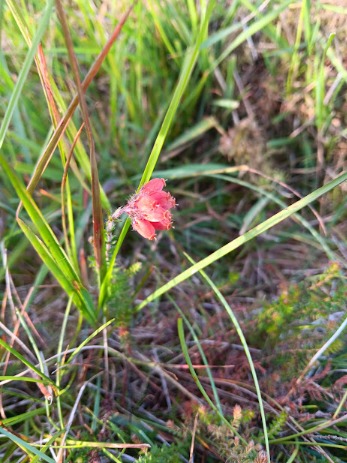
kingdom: Plantae
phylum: Tracheophyta
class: Magnoliopsida
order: Ericales
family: Ericaceae
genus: Erica
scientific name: Erica tetralix
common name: Klokkelyng
